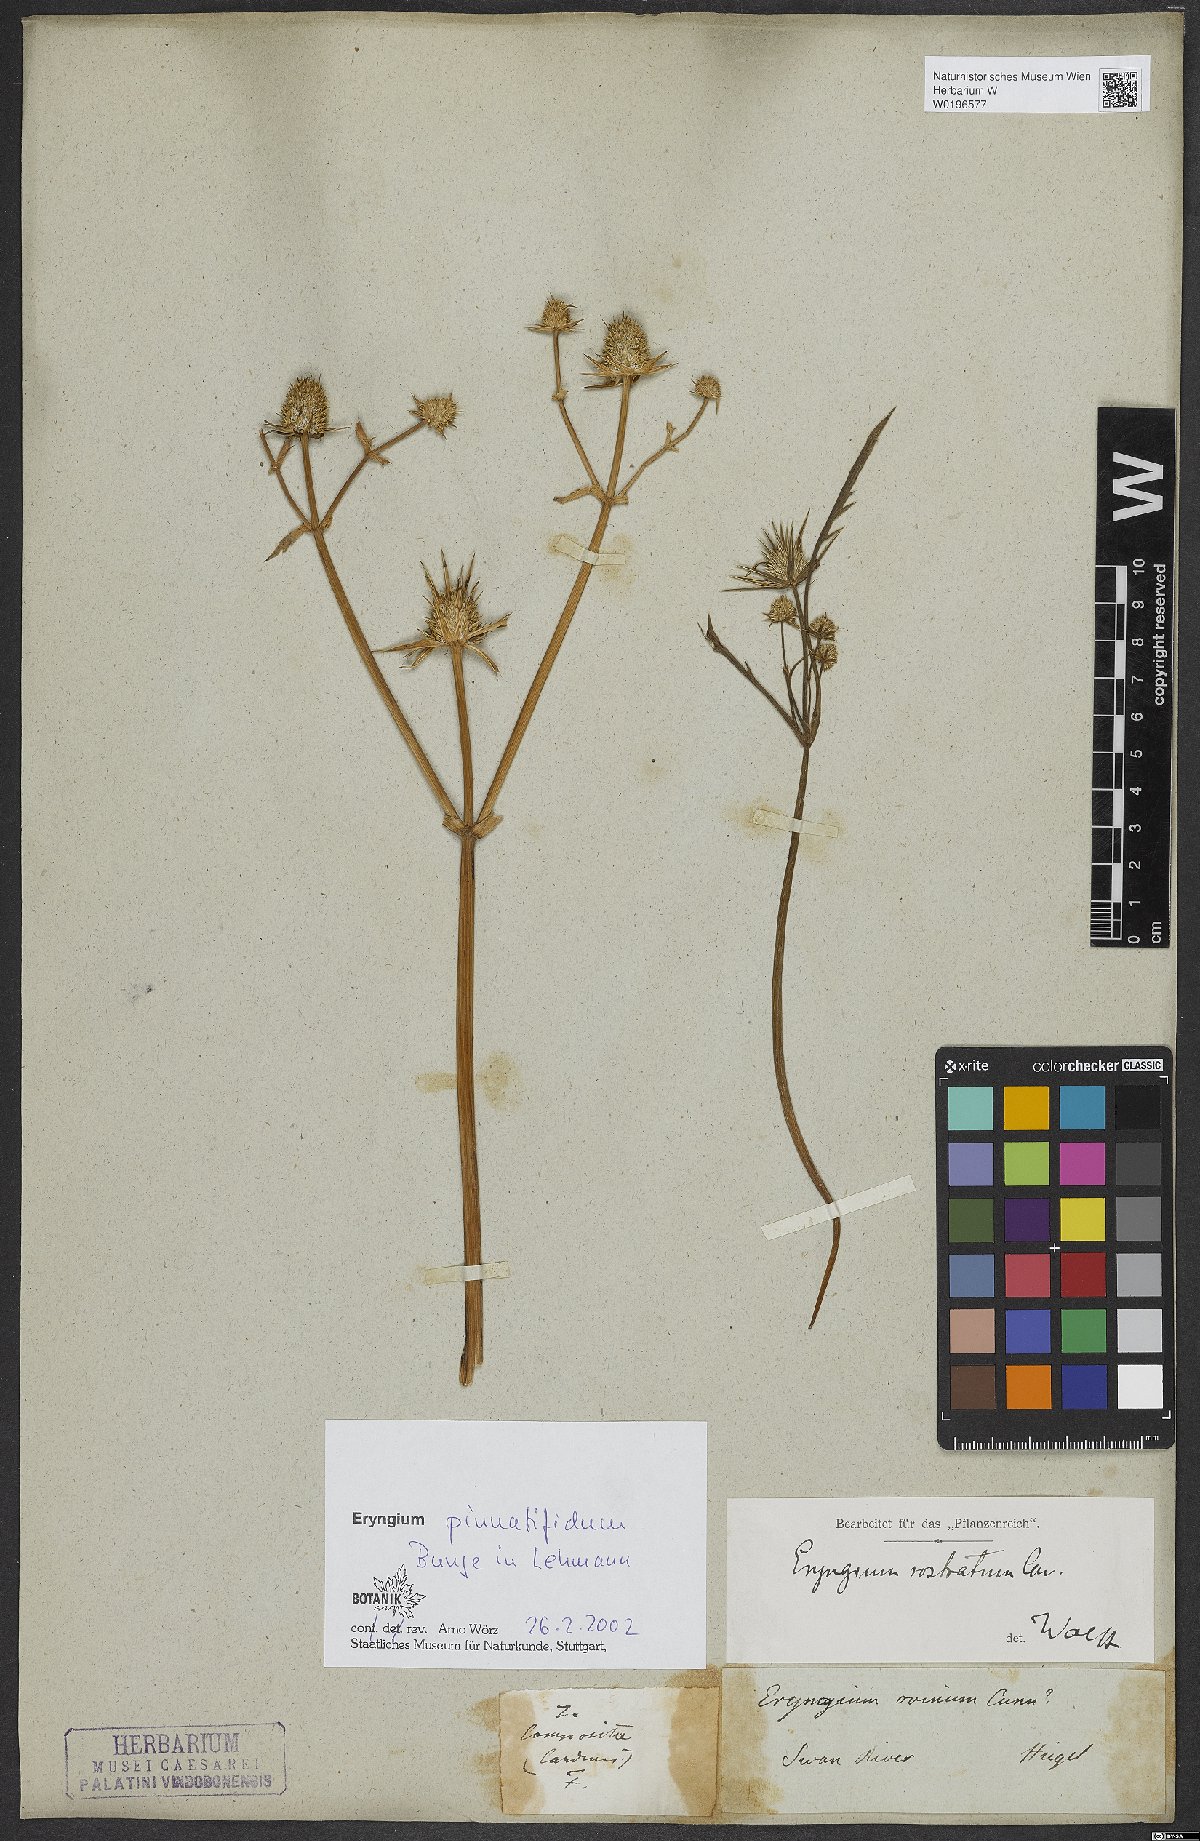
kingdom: Plantae
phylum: Tracheophyta
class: Magnoliopsida
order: Apiales
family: Apiaceae
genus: Eryngium
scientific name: Eryngium pinnatifidum
